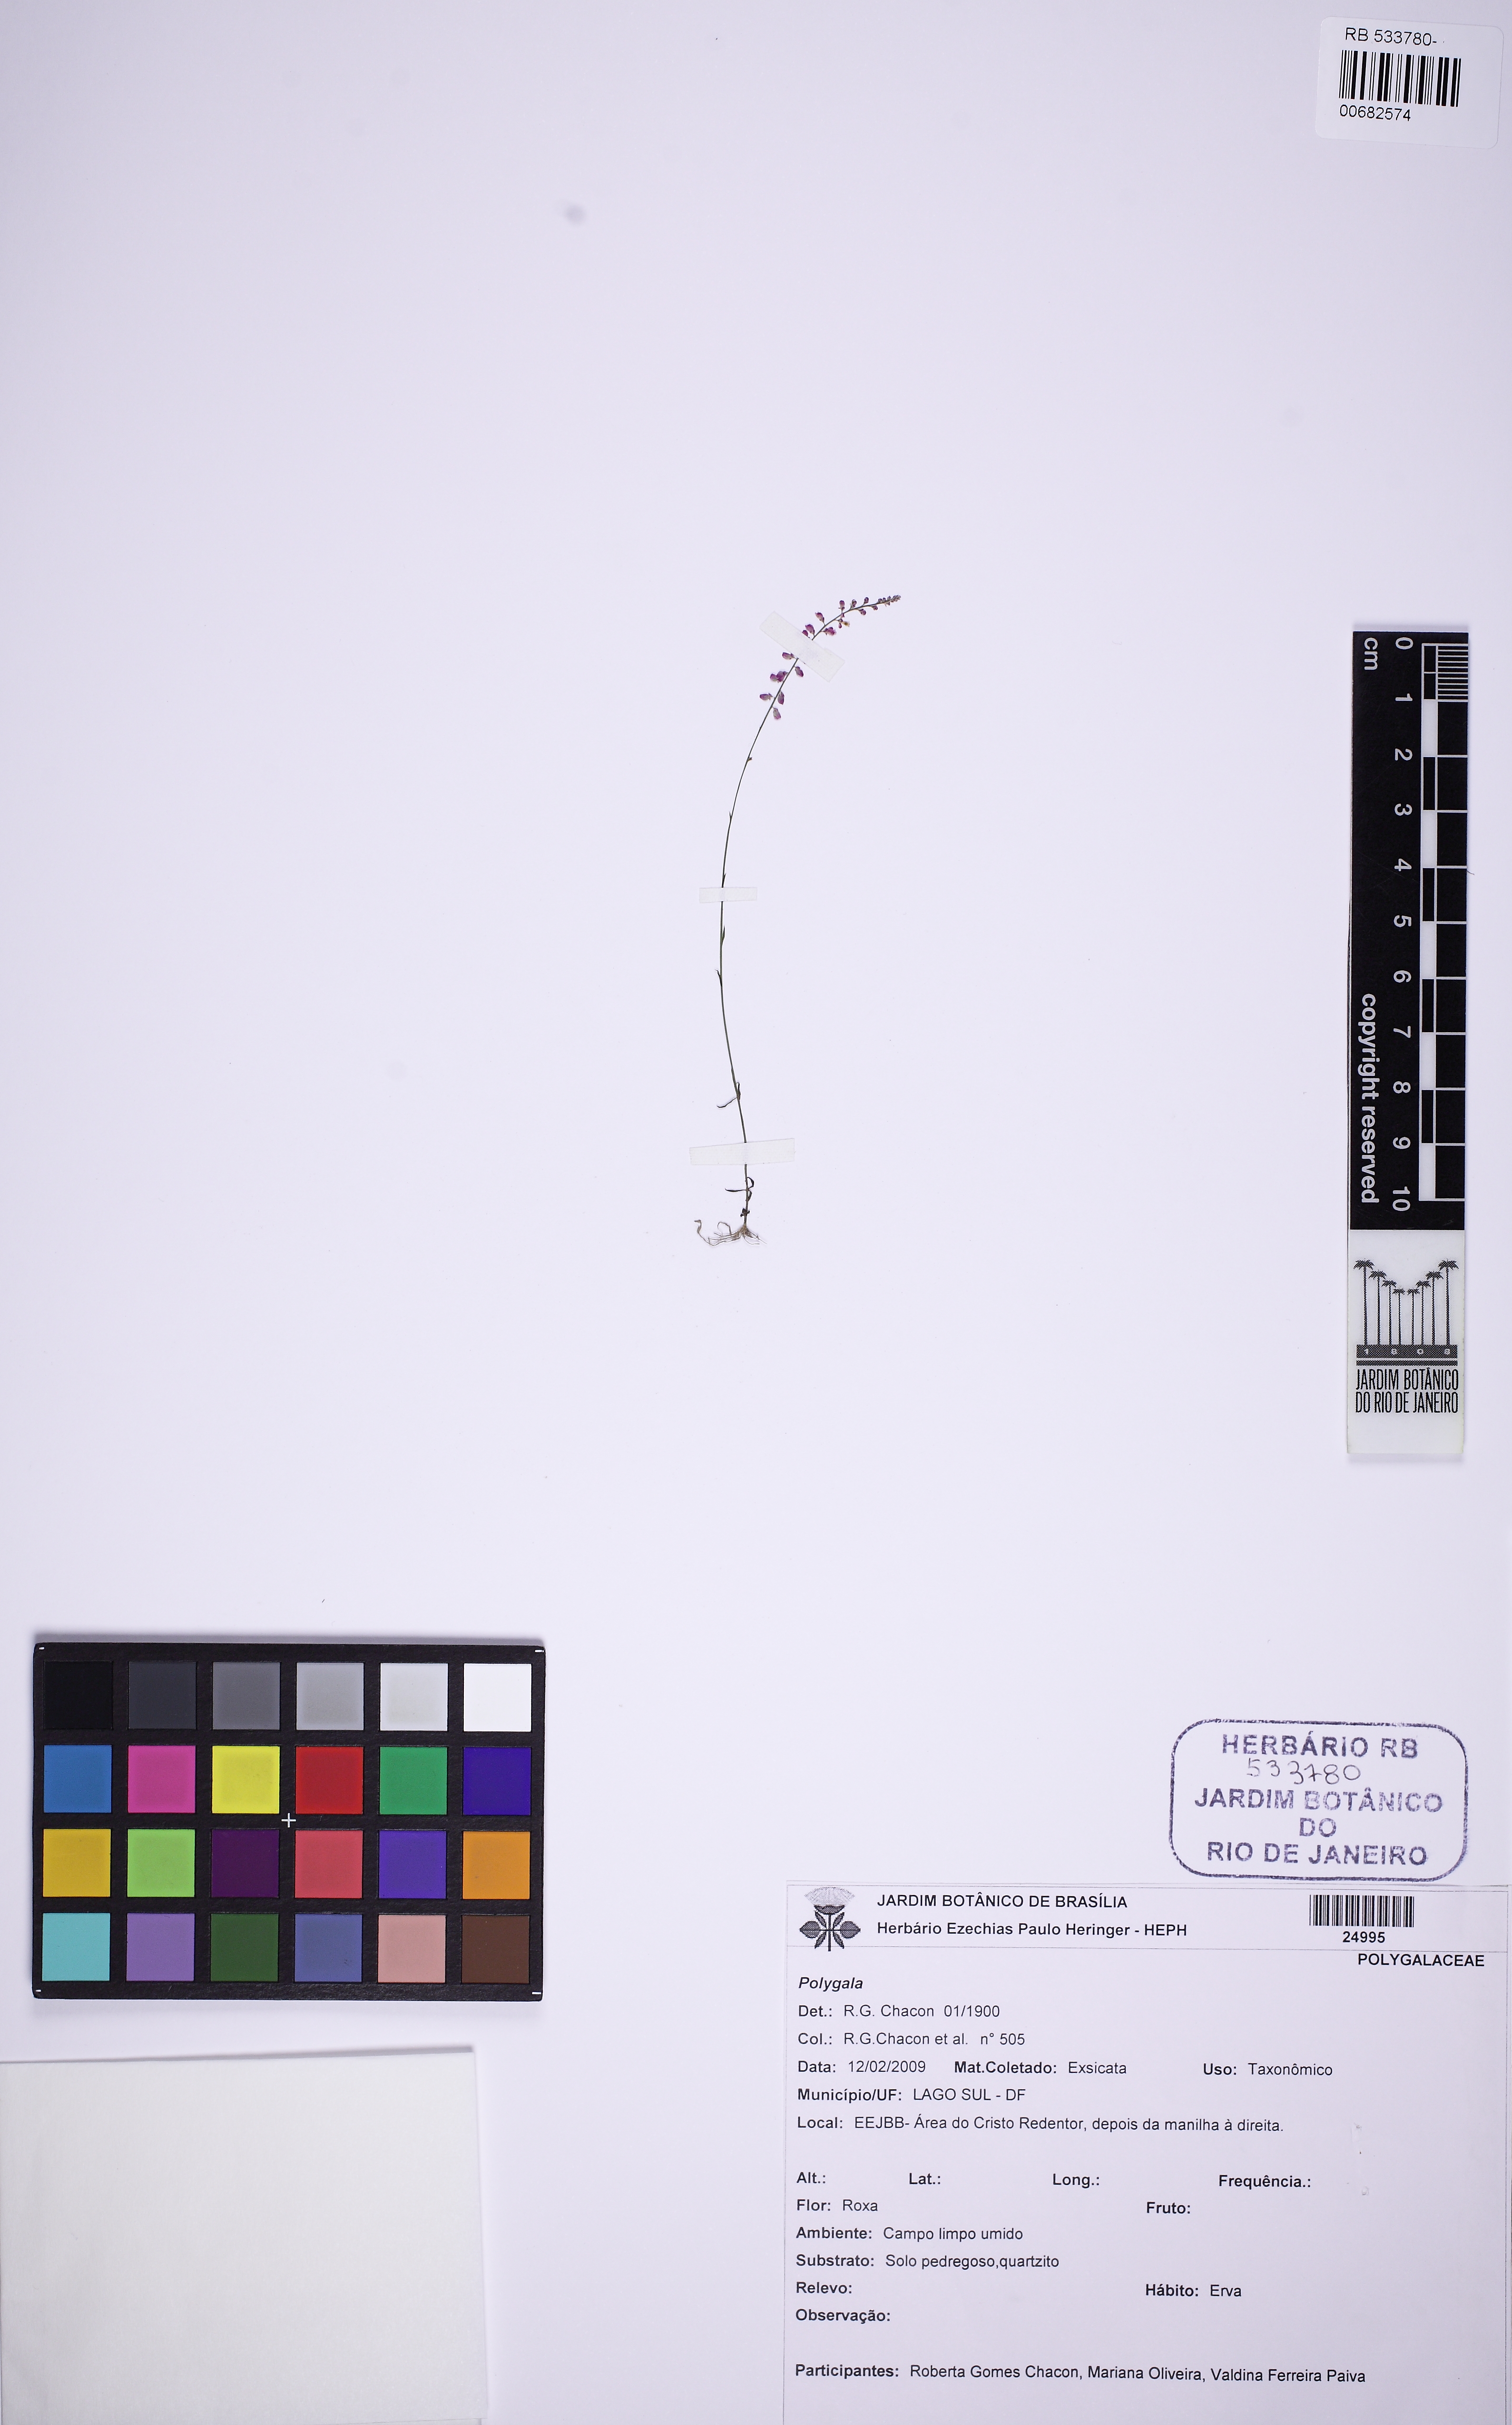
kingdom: Plantae
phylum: Tracheophyta
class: Magnoliopsida
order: Fabales
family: Polygalaceae
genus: Polygala
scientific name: Polygala fendleri
